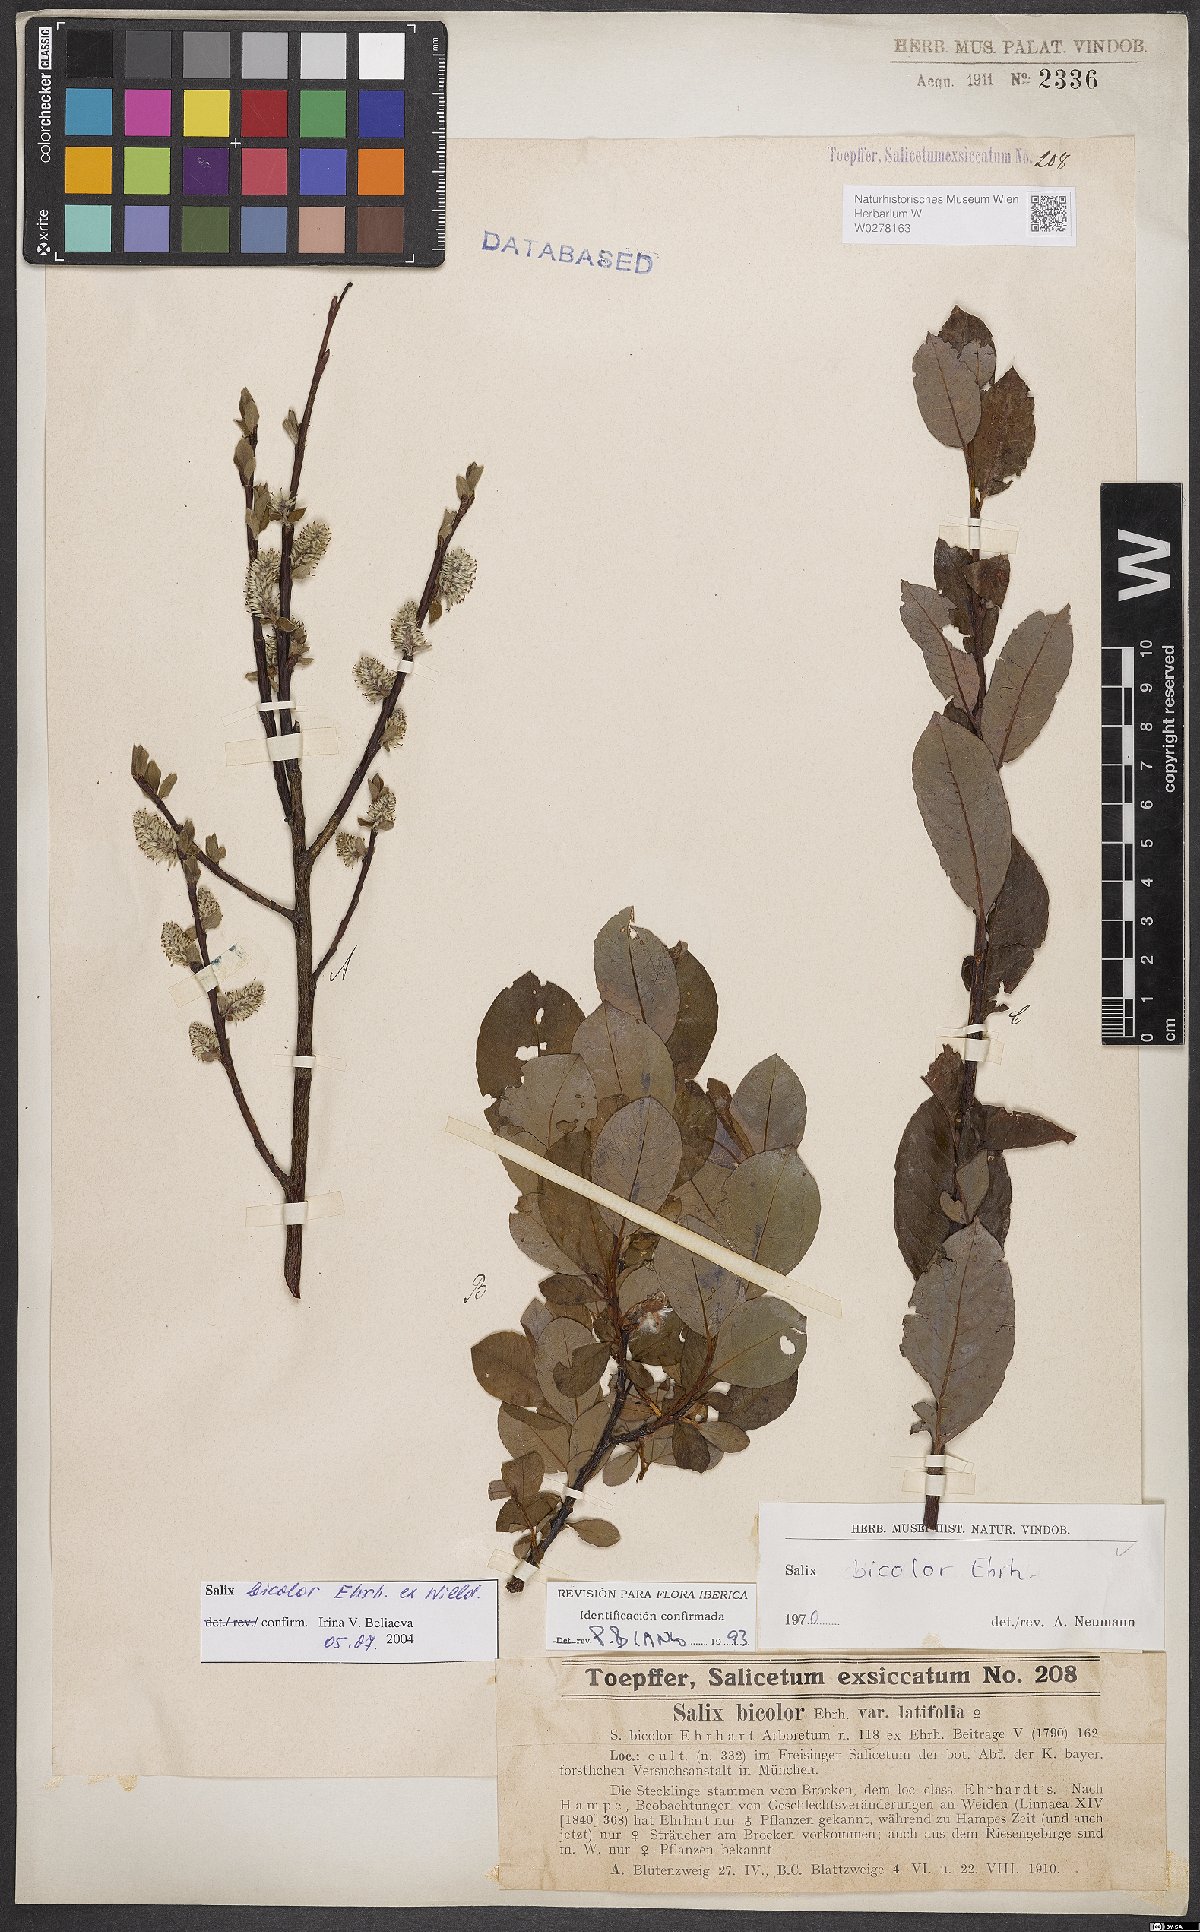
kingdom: Plantae
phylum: Tracheophyta
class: Magnoliopsida
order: Malpighiales
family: Salicaceae
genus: Salix
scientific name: Salix bicolor
